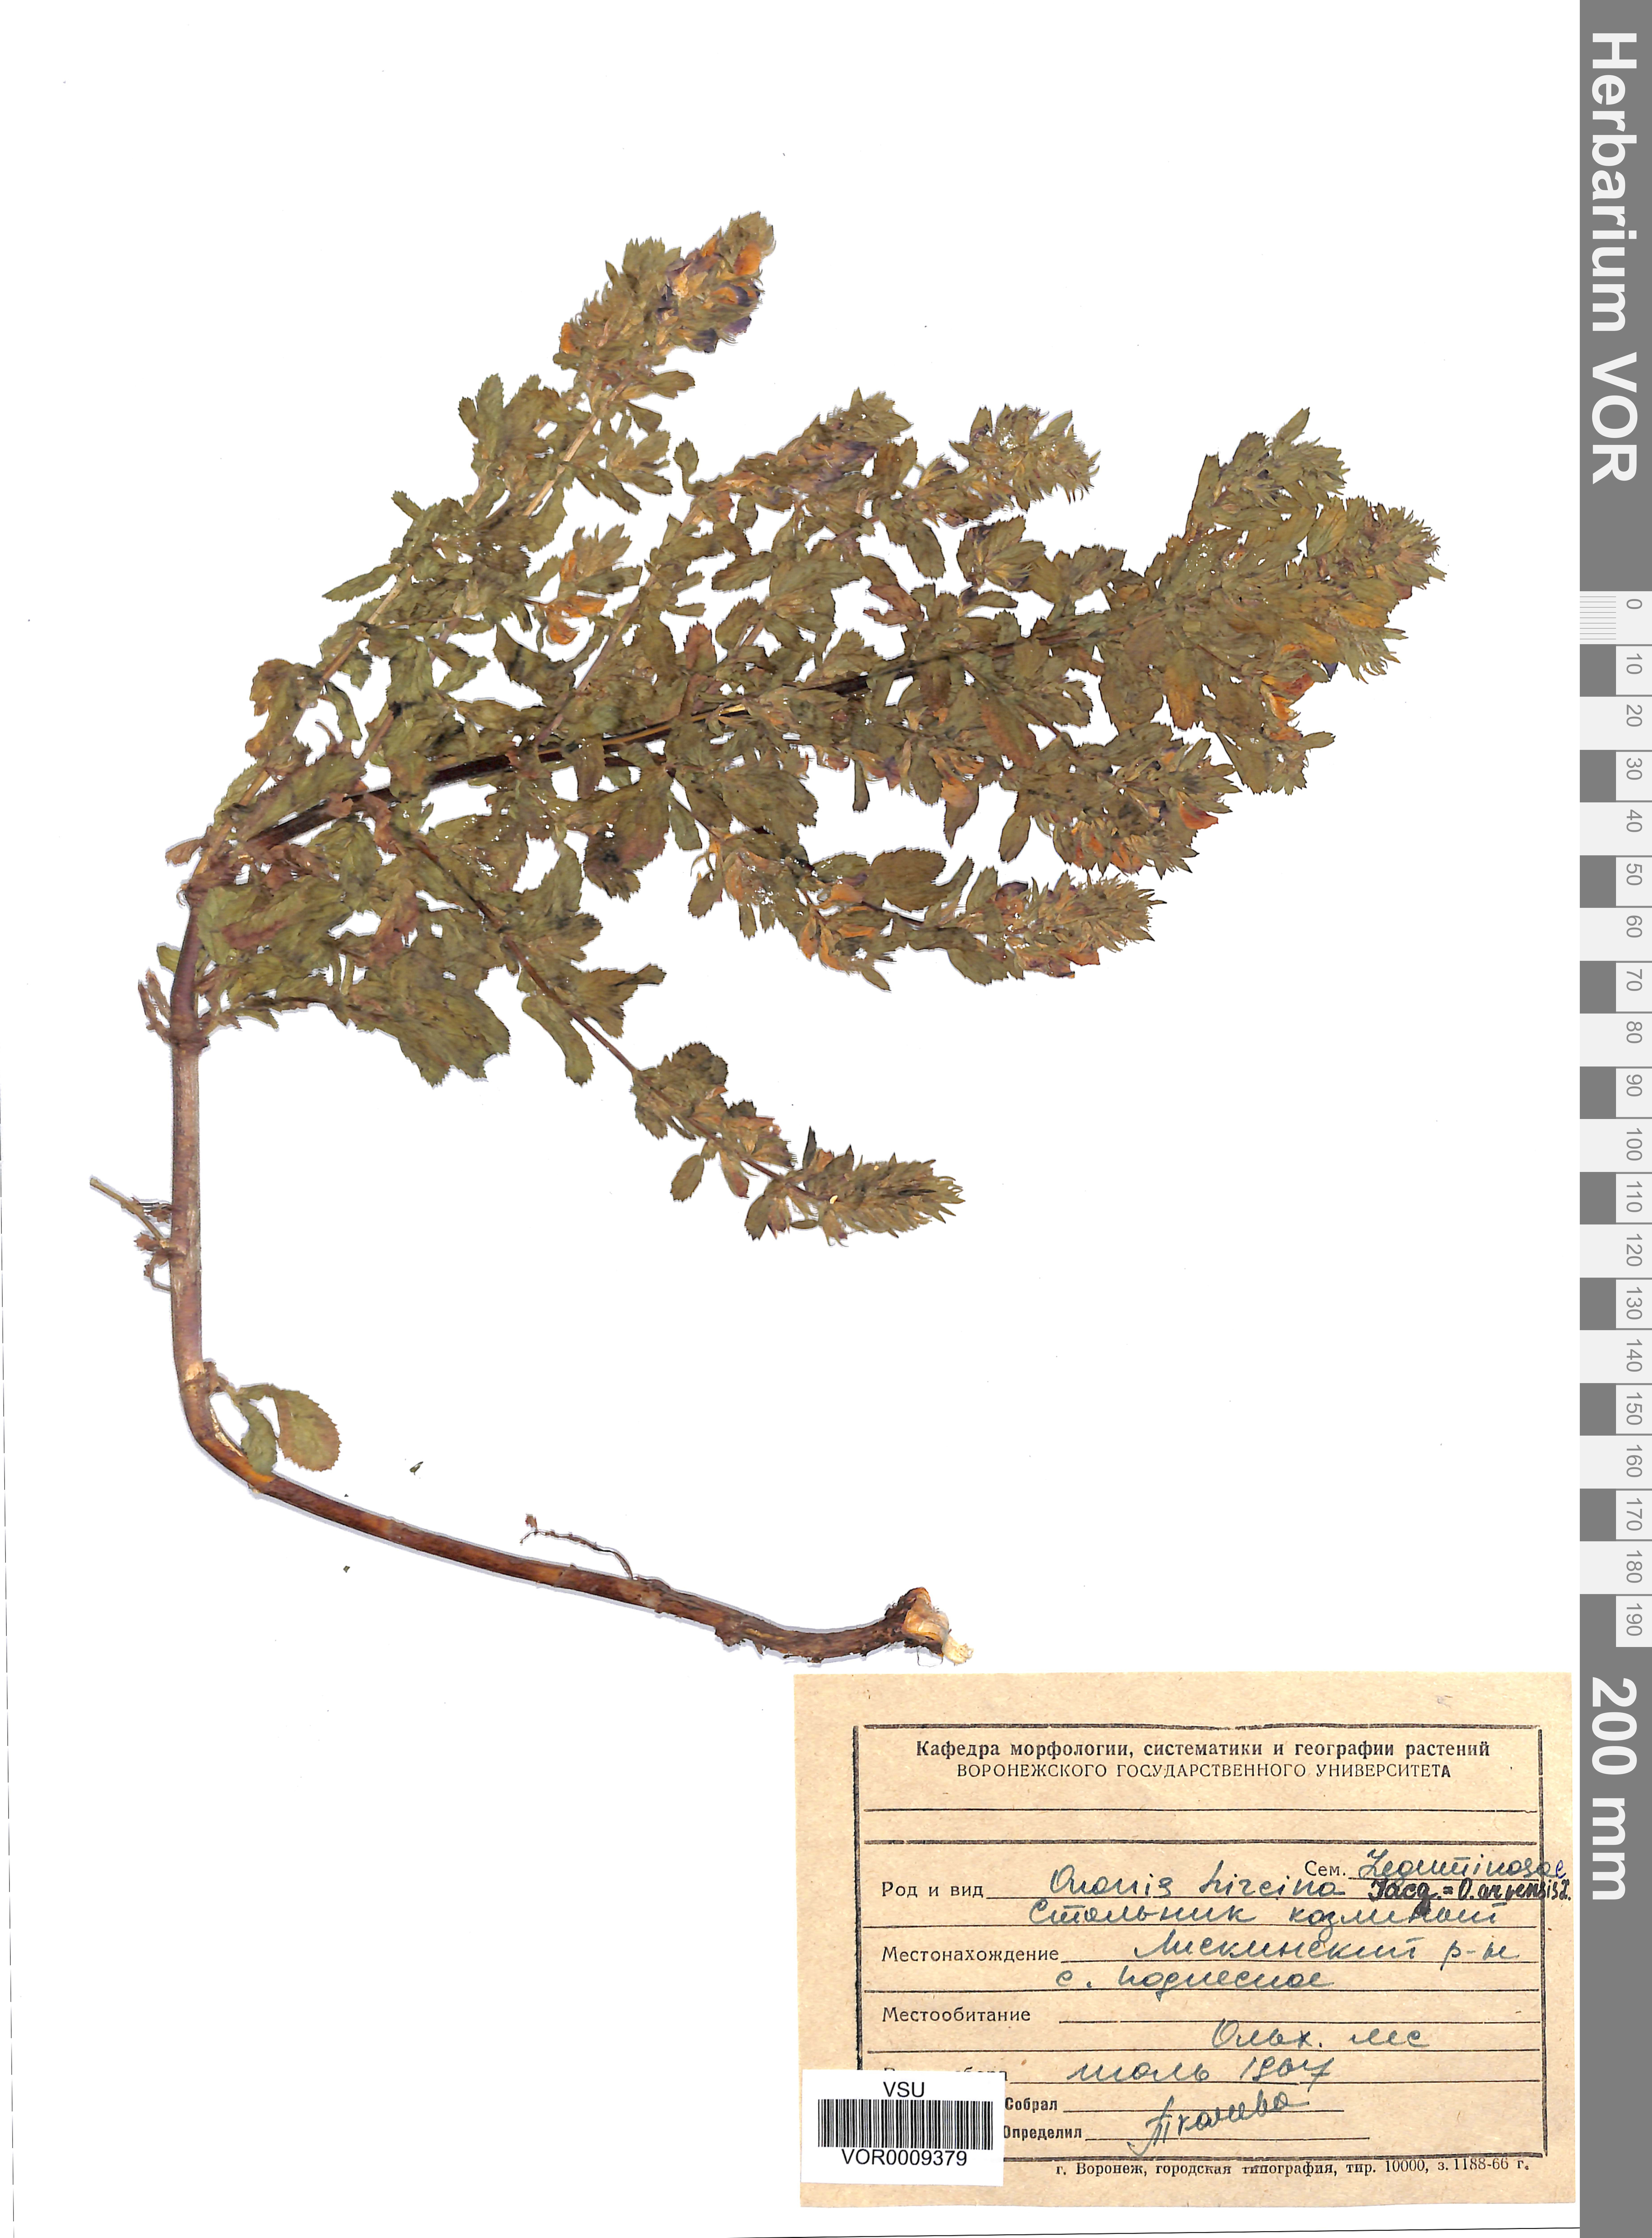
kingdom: Plantae
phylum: Tracheophyta
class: Magnoliopsida
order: Fabales
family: Fabaceae
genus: Ononis
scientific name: Ononis arvensis
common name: Field restharrow
